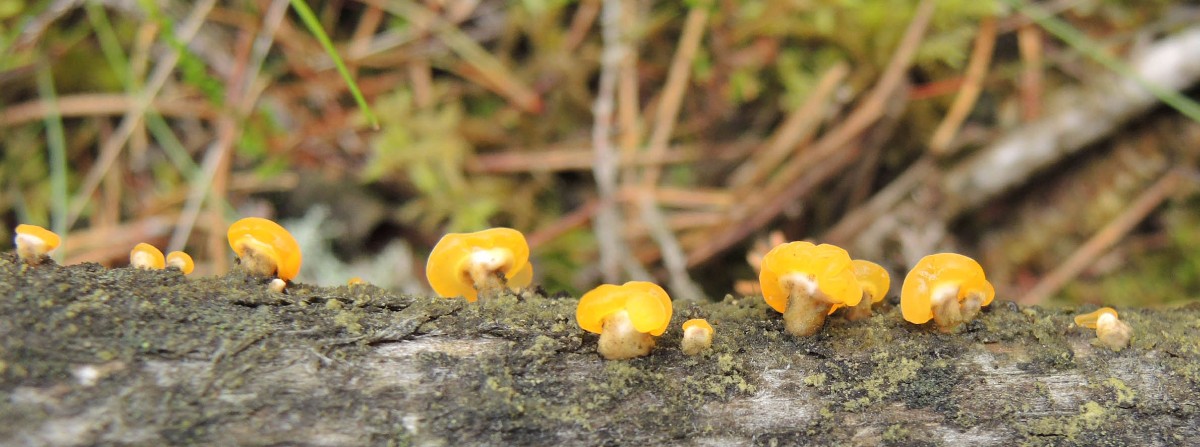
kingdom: Fungi
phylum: Basidiomycota
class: Dacrymycetes
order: Dacrymycetales
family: Dacrymycetaceae
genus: Ditiola
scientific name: Ditiola radicata
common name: rod-tåresvamp
